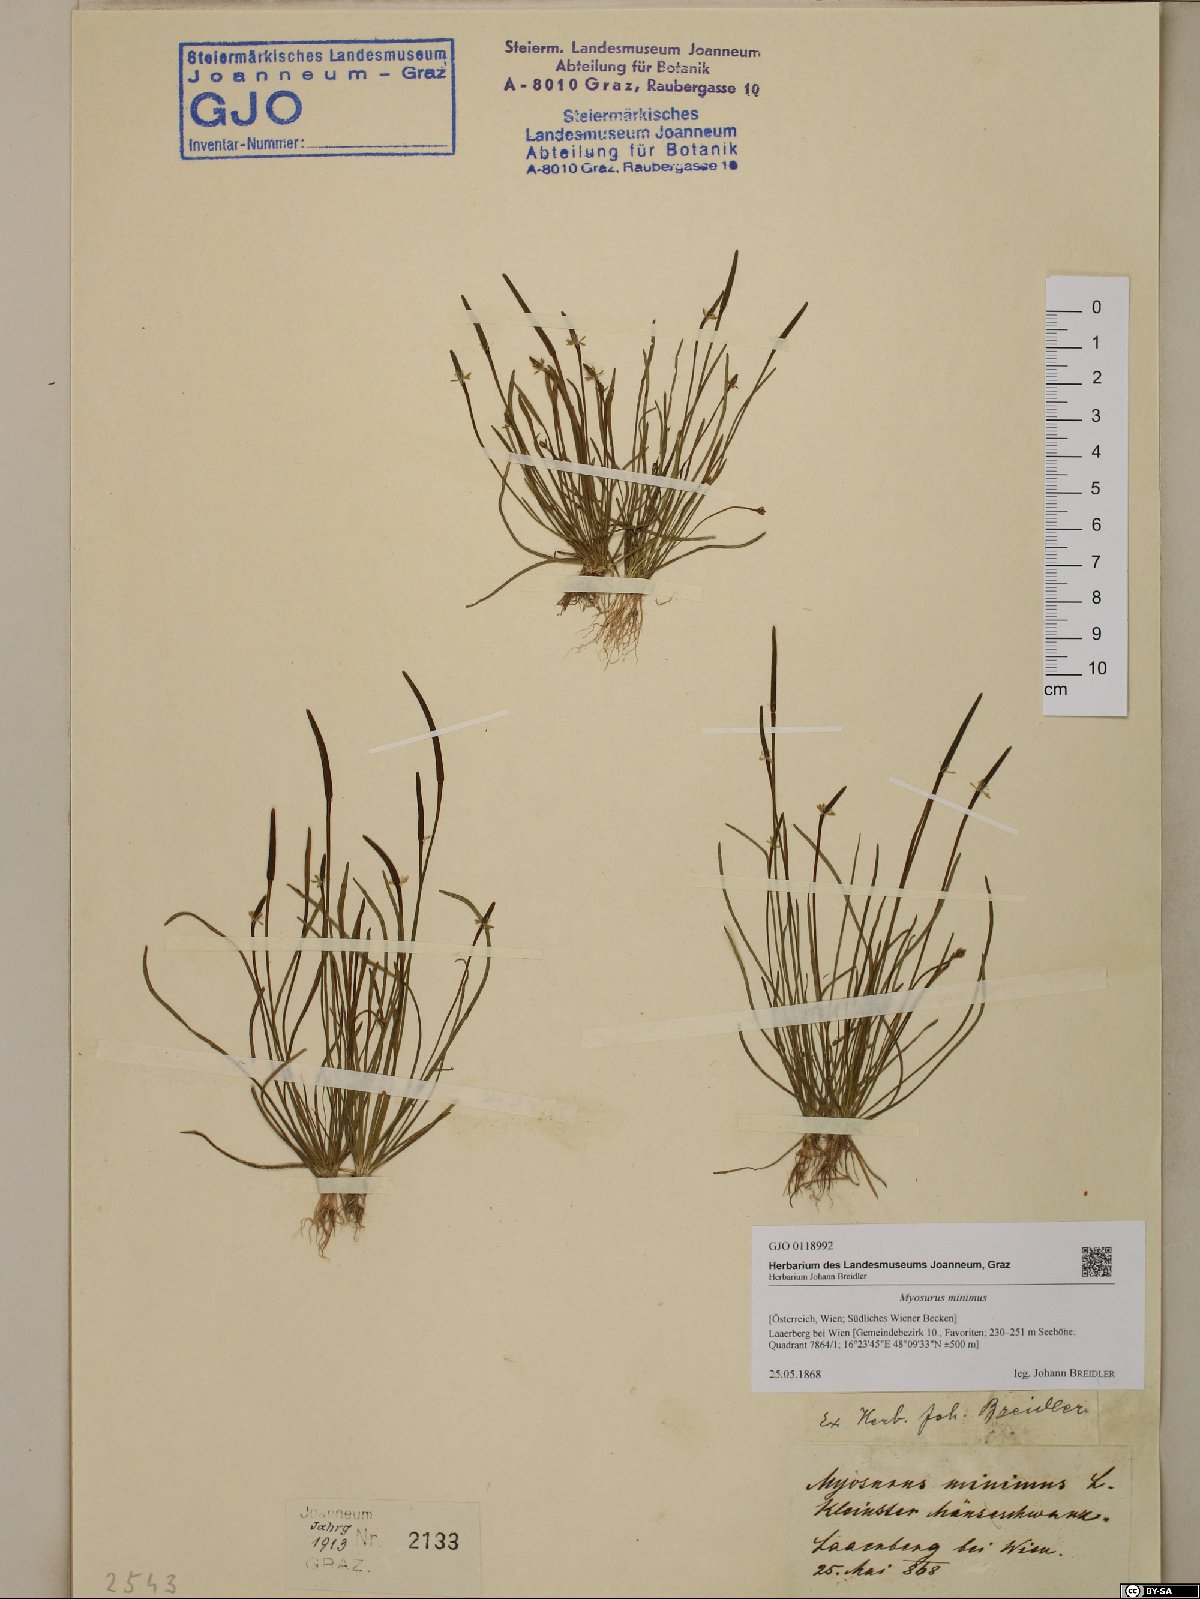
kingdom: Plantae
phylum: Tracheophyta
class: Magnoliopsida
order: Ranunculales
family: Ranunculaceae
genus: Myosurus
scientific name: Myosurus minimus
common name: Mousetail
